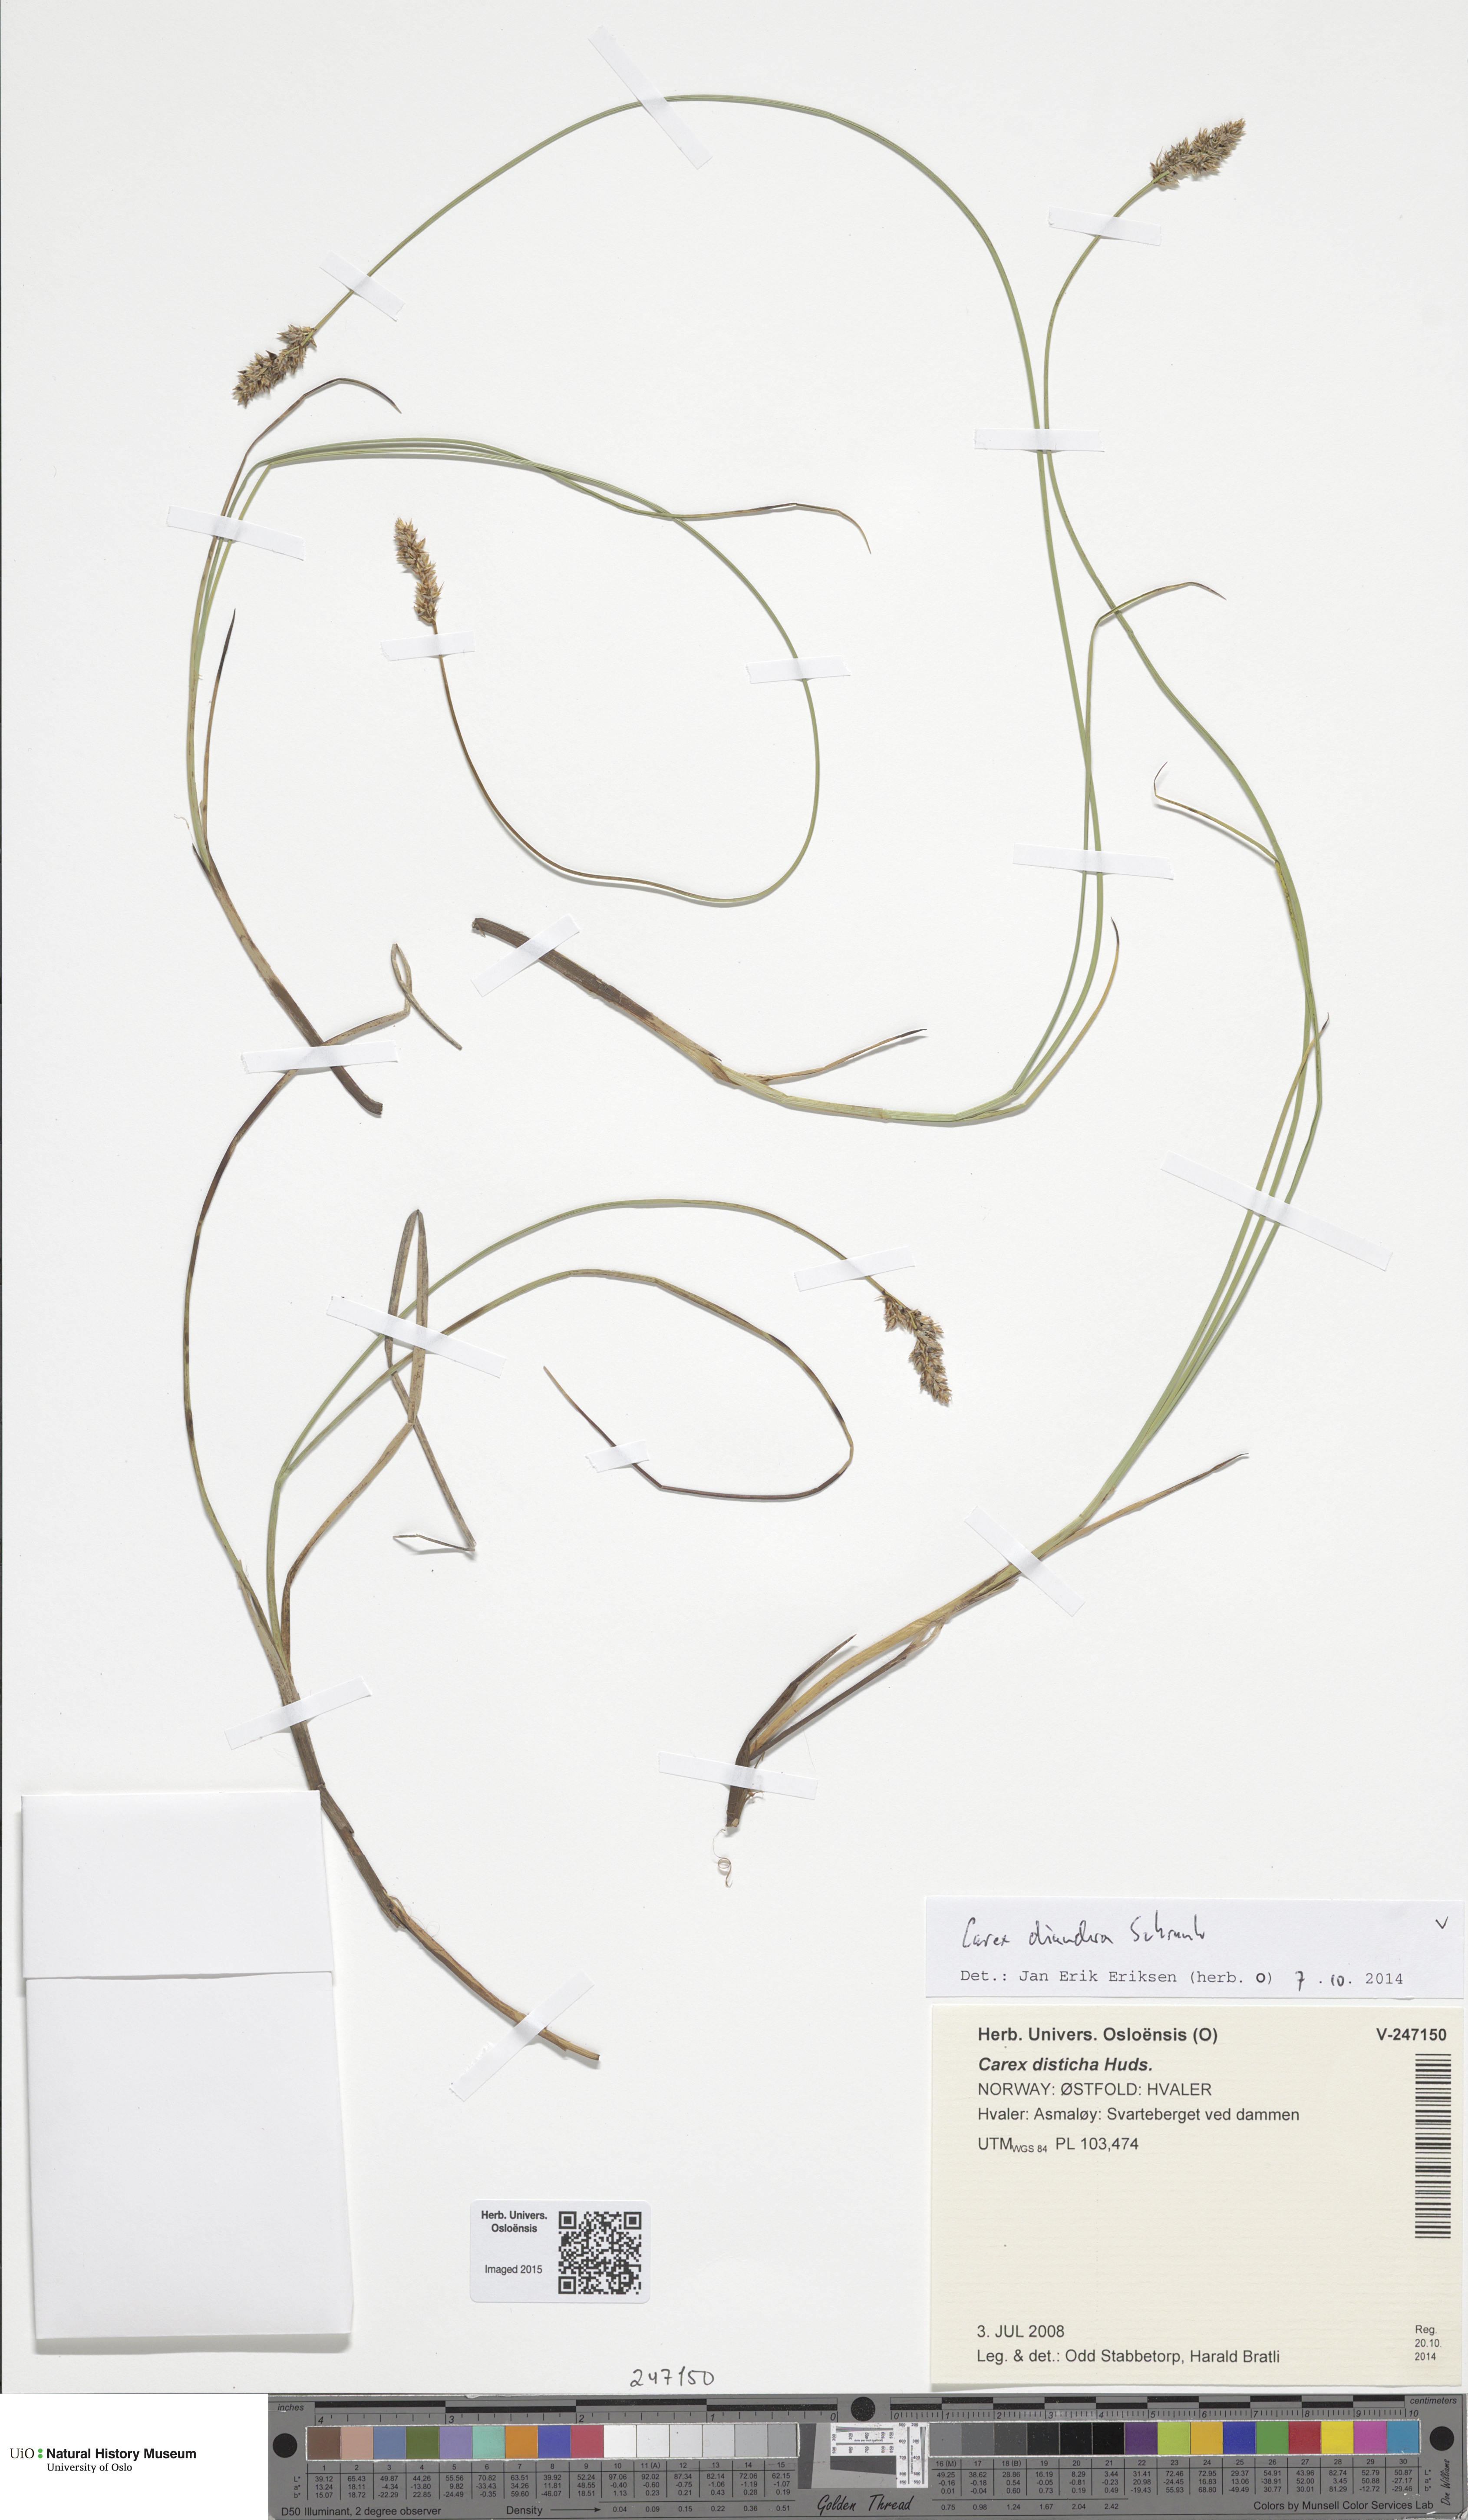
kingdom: Plantae
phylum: Tracheophyta
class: Liliopsida
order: Poales
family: Cyperaceae
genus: Carex
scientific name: Carex diandra
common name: Lesser tussock-sedge
